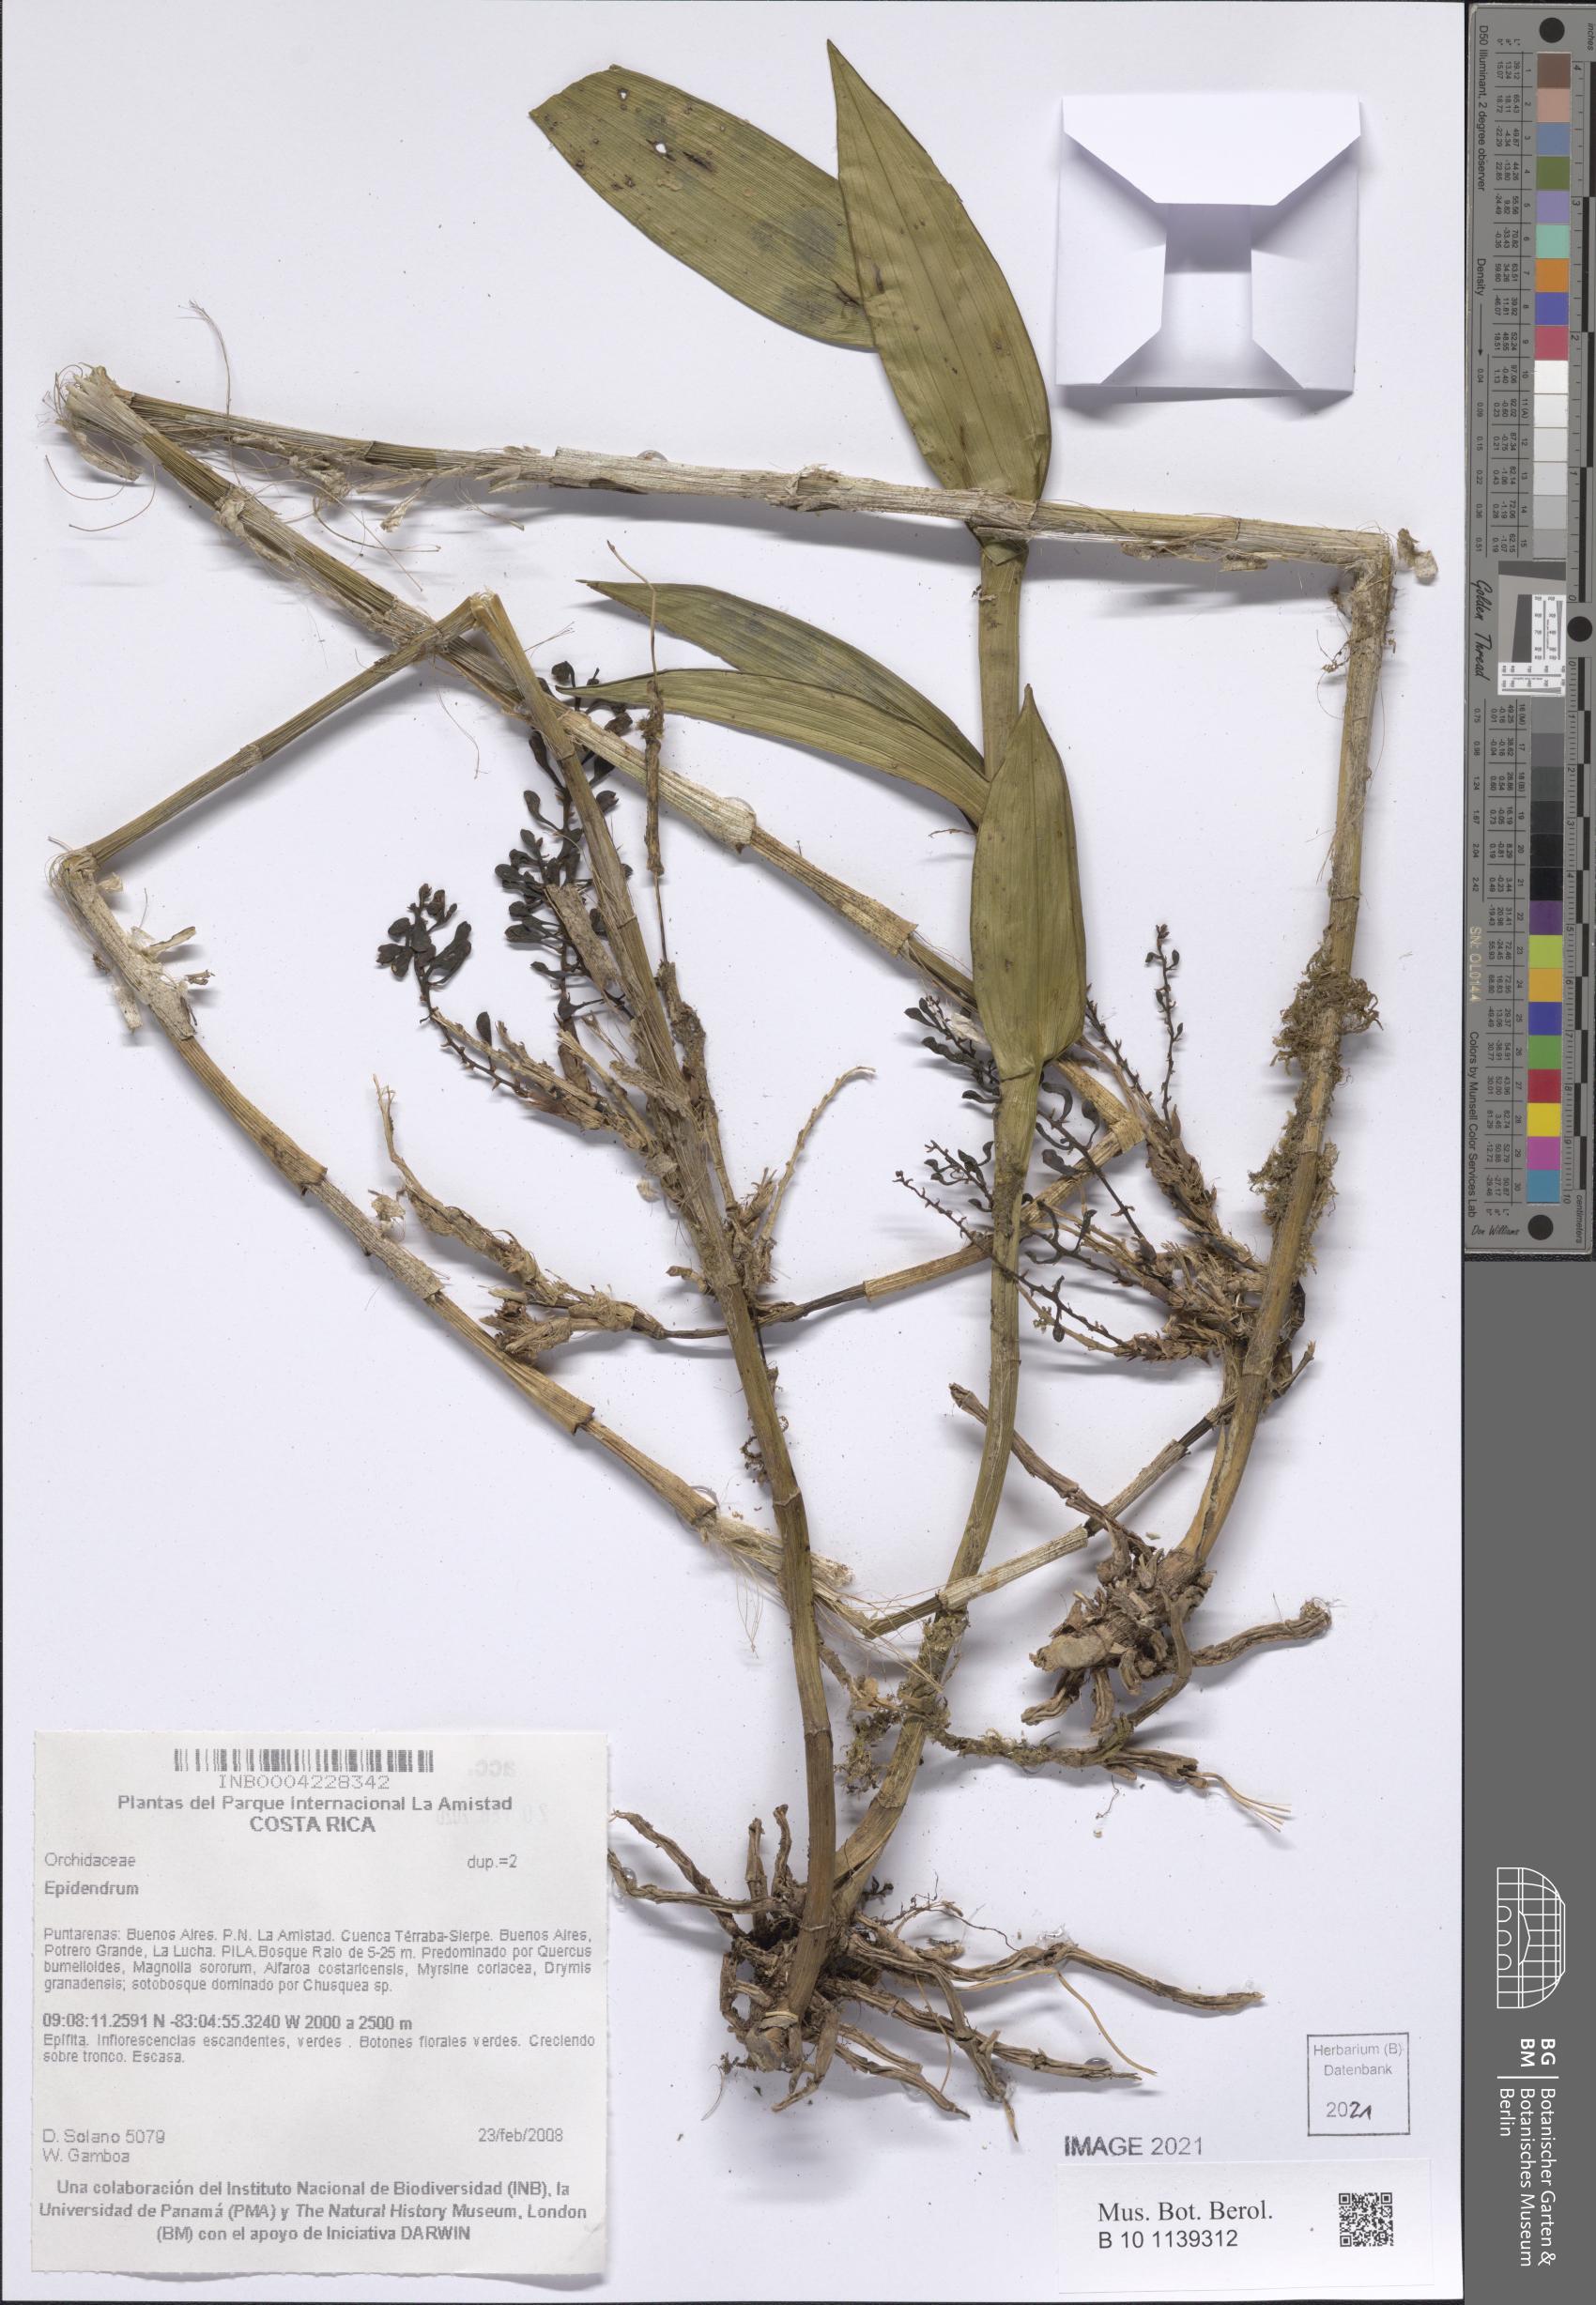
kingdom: Plantae
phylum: Tracheophyta
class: Liliopsida
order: Asparagales
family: Orchidaceae
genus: Epidendrum
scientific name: Epidendrum
